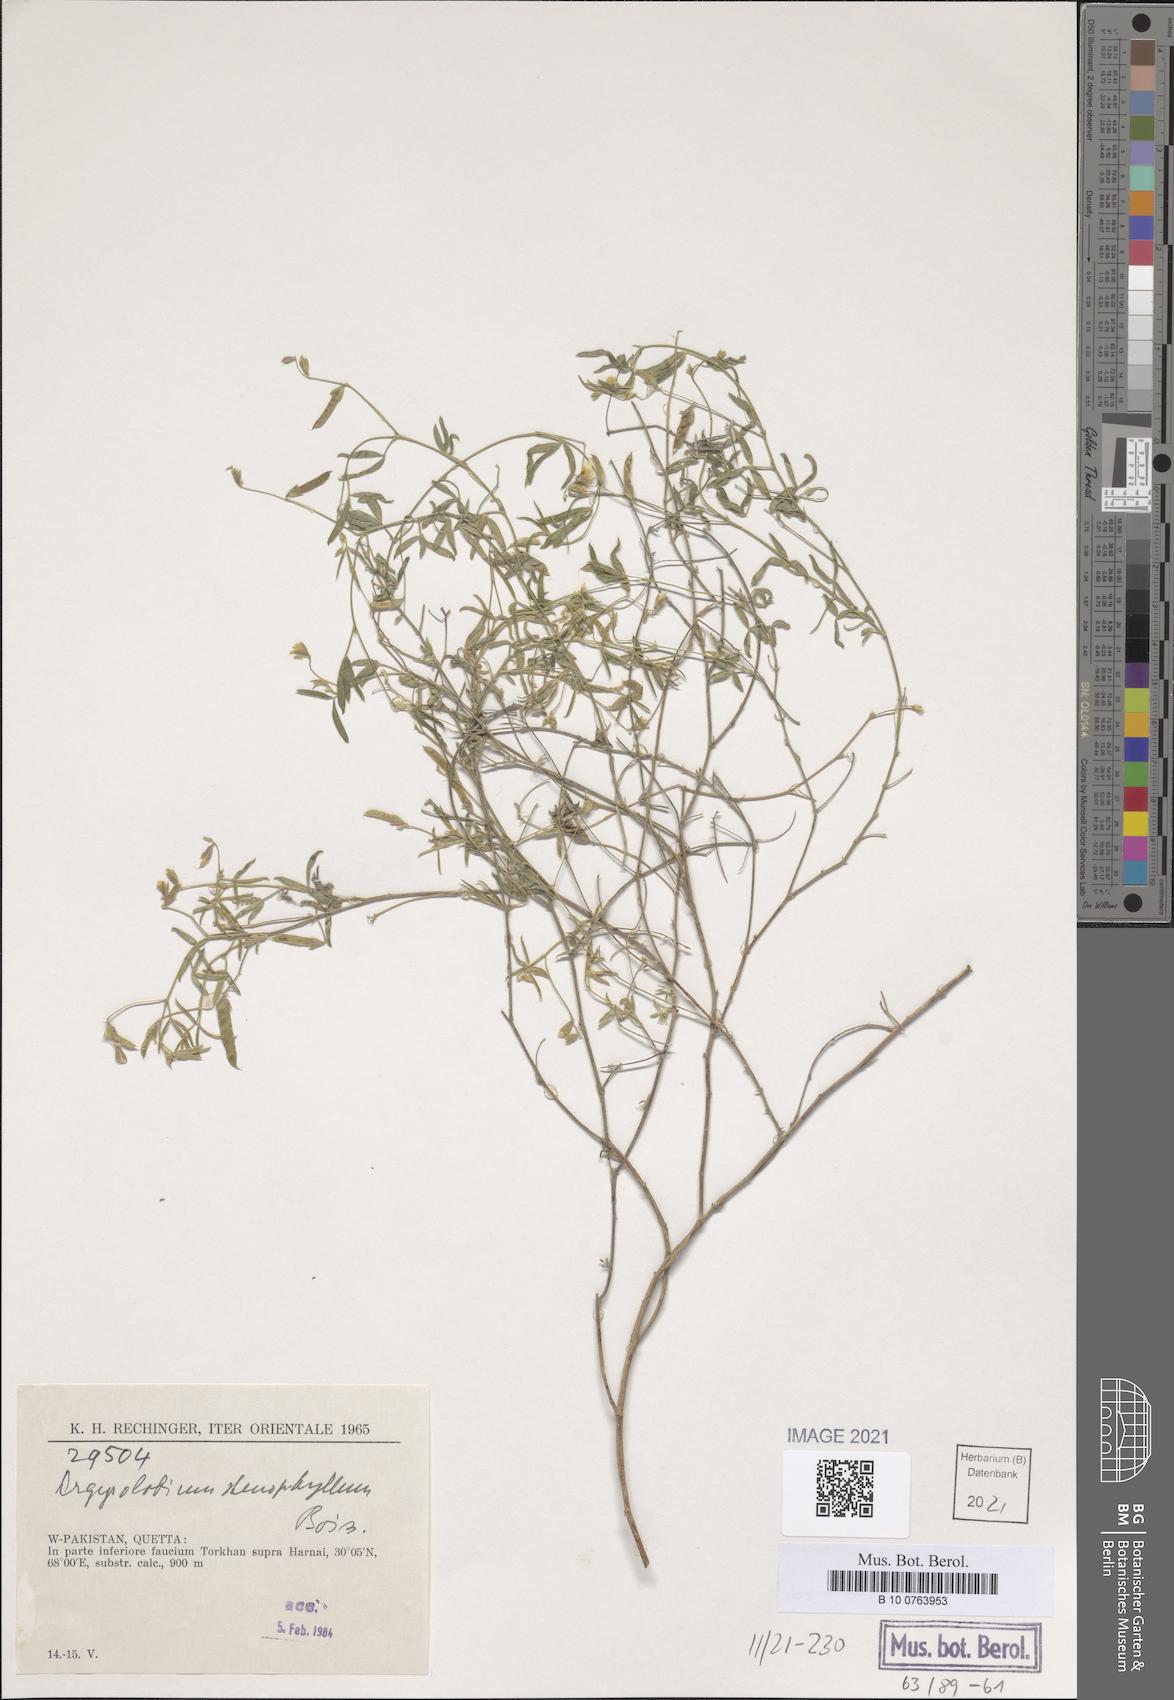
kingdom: Plantae
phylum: Tracheophyta
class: Magnoliopsida
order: Fabales
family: Fabaceae
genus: Argyrolobium
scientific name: Argyrolobium stenophyllum
